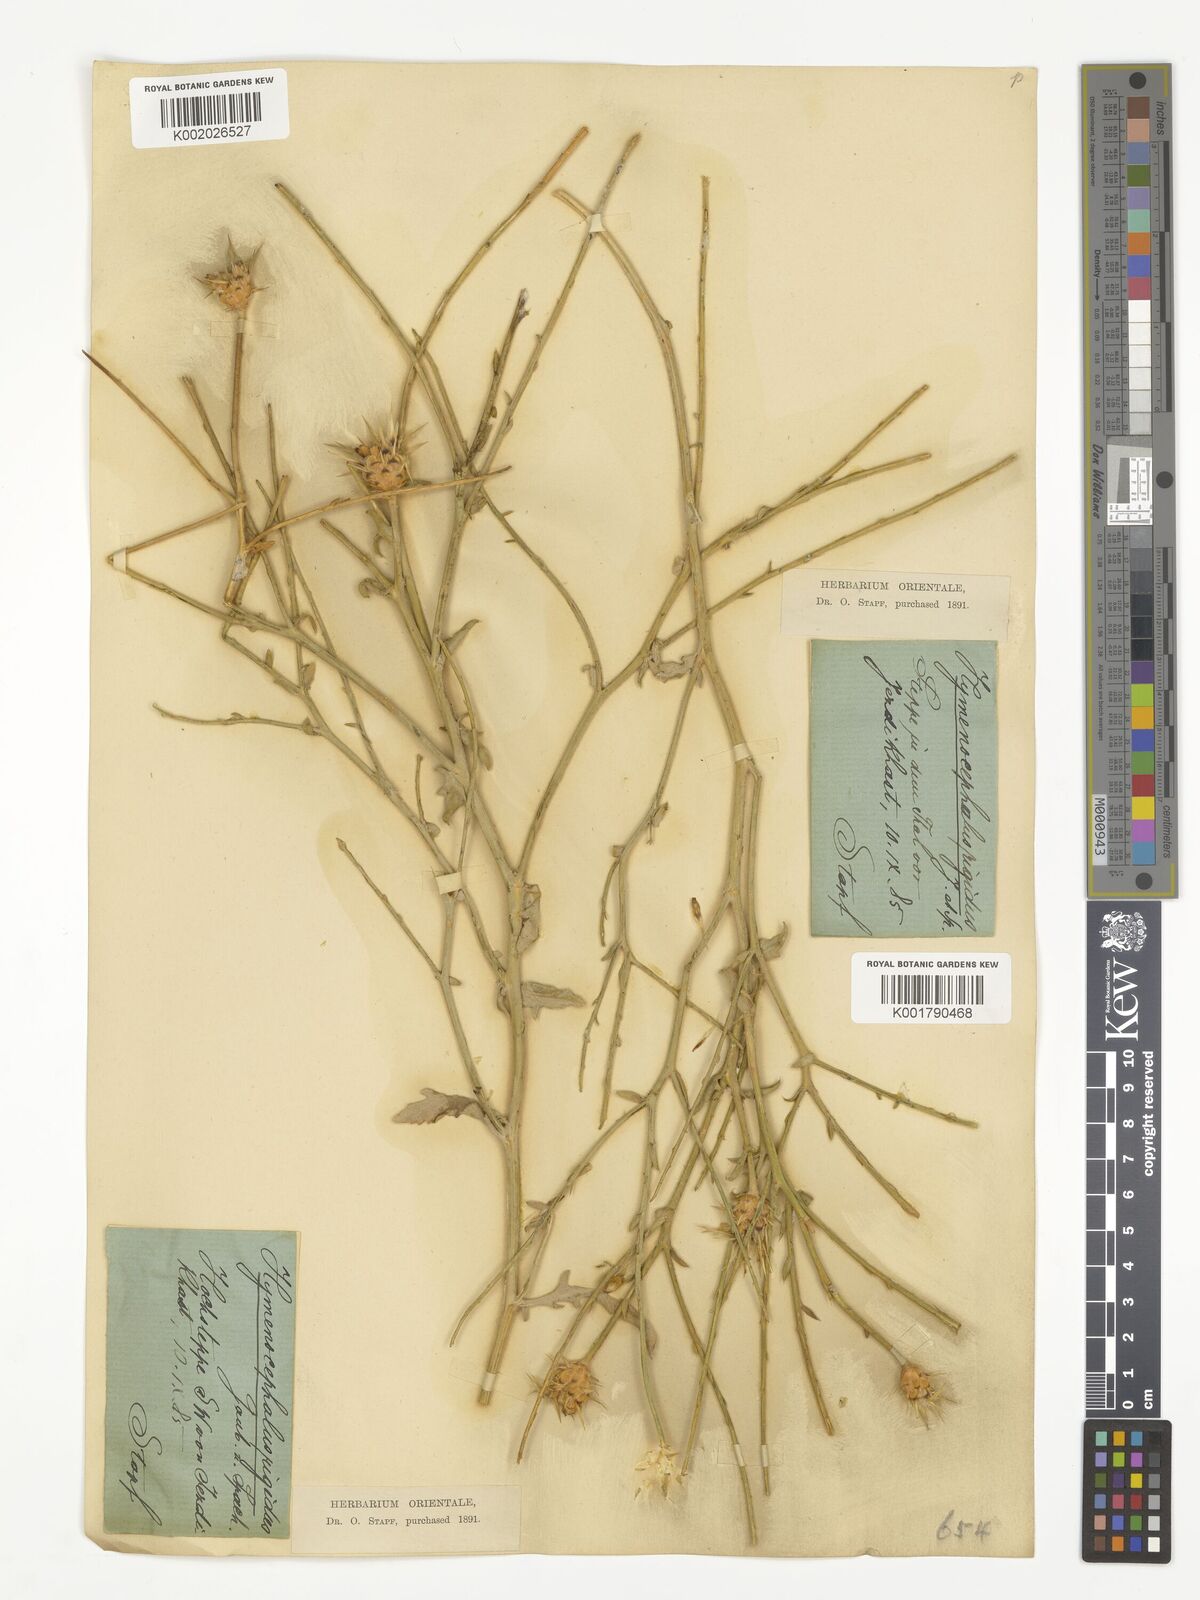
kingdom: Plantae
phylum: Tracheophyta
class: Magnoliopsida
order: Asterales
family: Asteraceae
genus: Hymenocephalus
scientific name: Hymenocephalus rigidus
